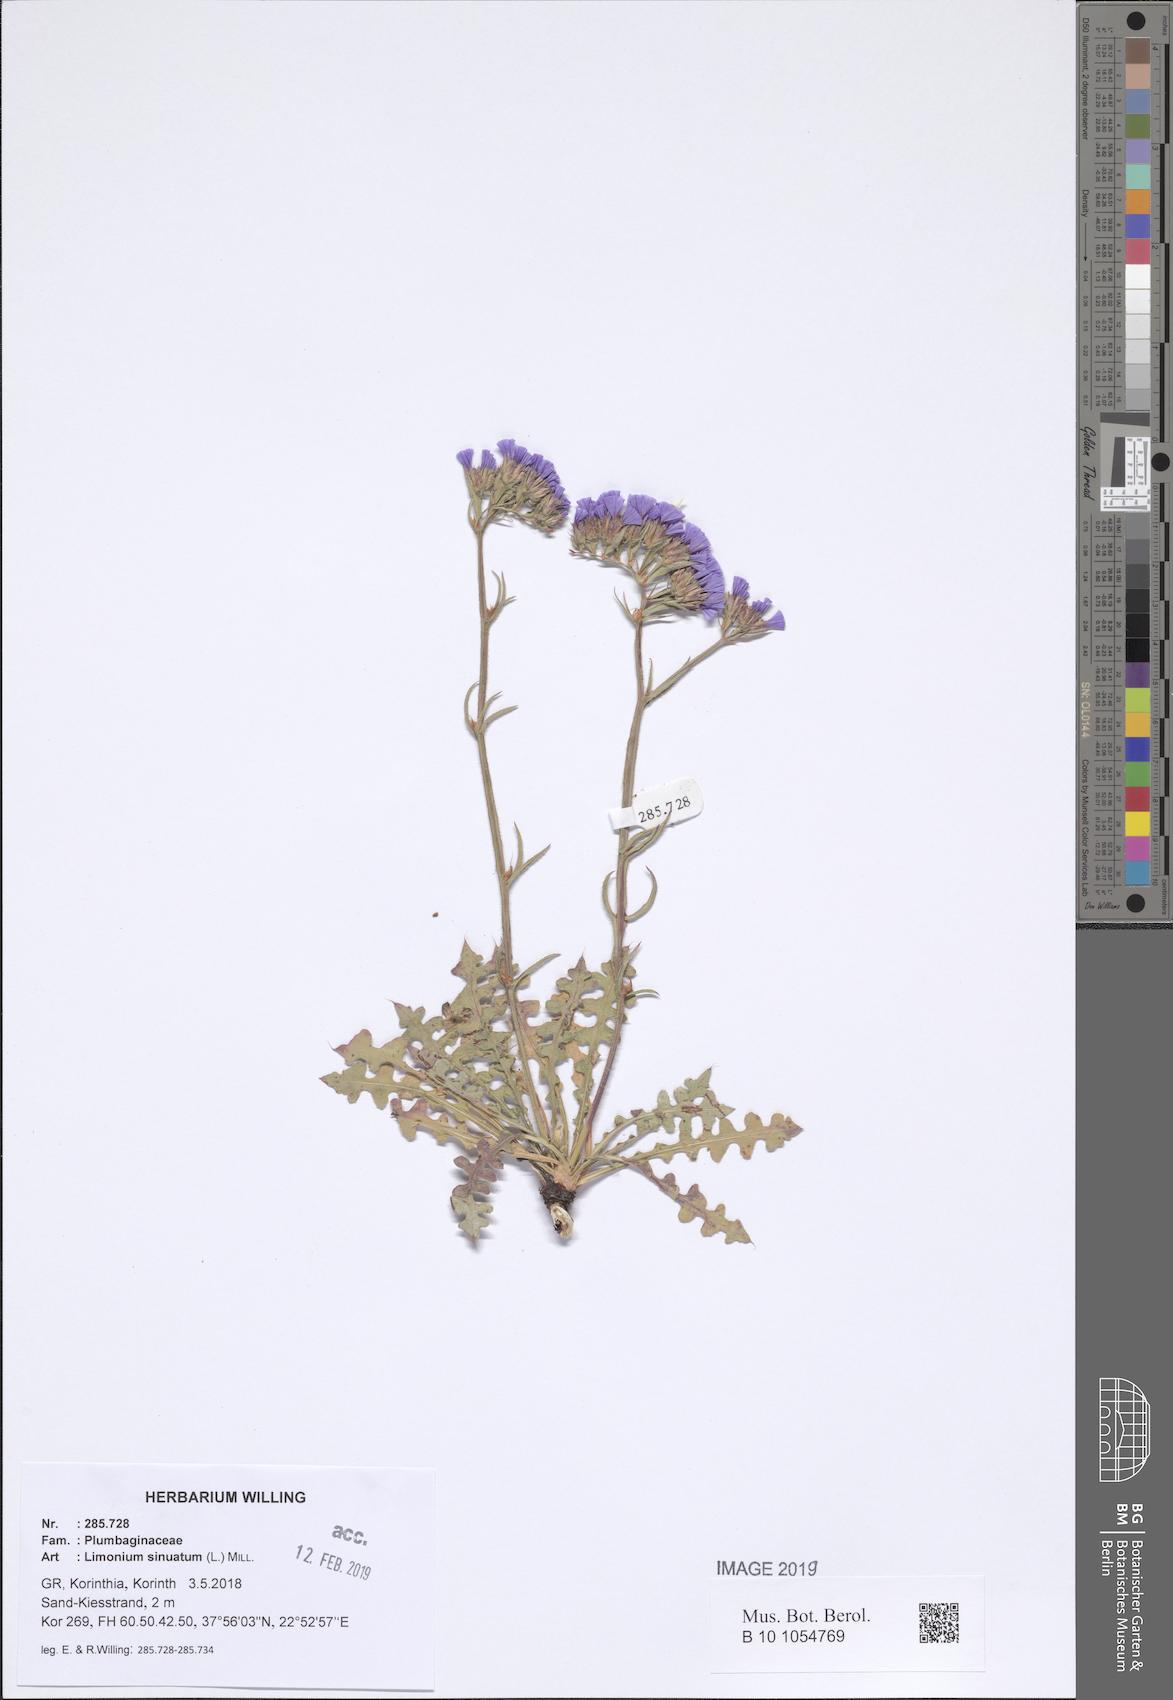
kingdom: Plantae
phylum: Tracheophyta
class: Magnoliopsida
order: Caryophyllales
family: Plumbaginaceae
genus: Limonium
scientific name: Limonium sinuatum
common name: Statice
